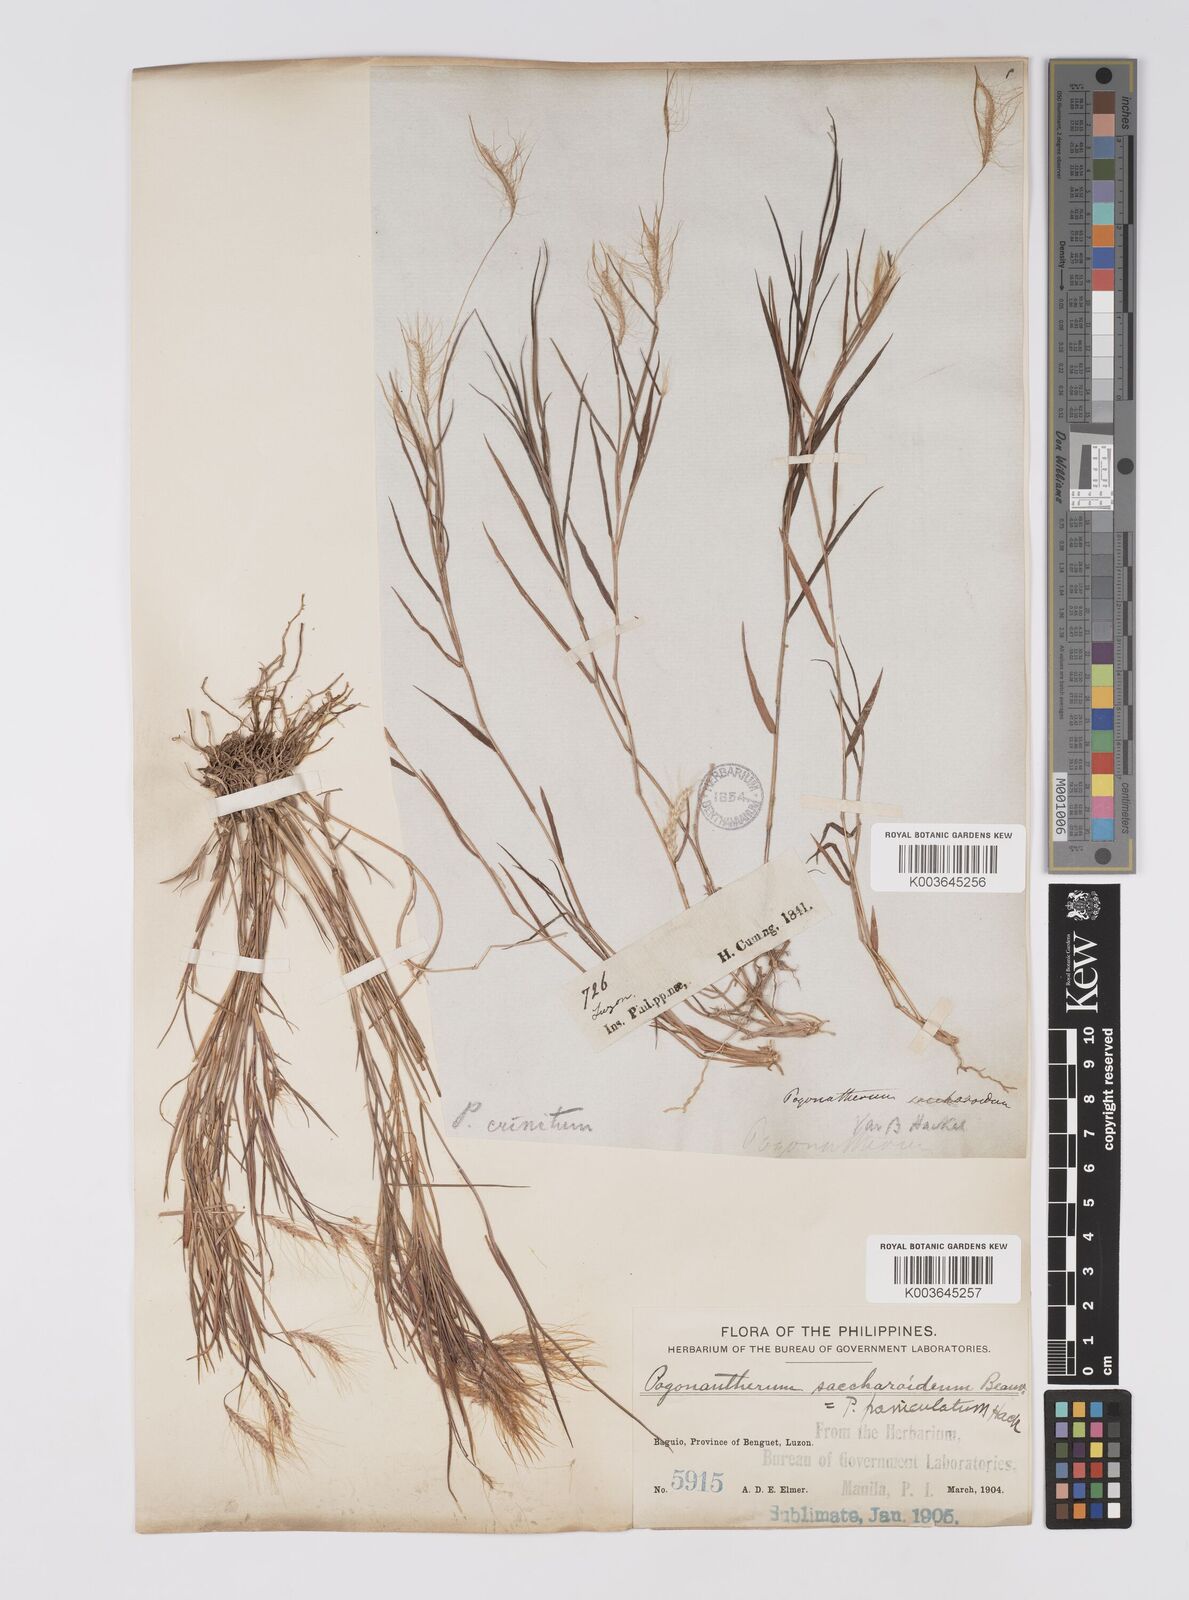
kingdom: Plantae
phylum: Tracheophyta
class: Liliopsida
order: Poales
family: Poaceae
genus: Pogonatherum
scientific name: Pogonatherum paniceum
